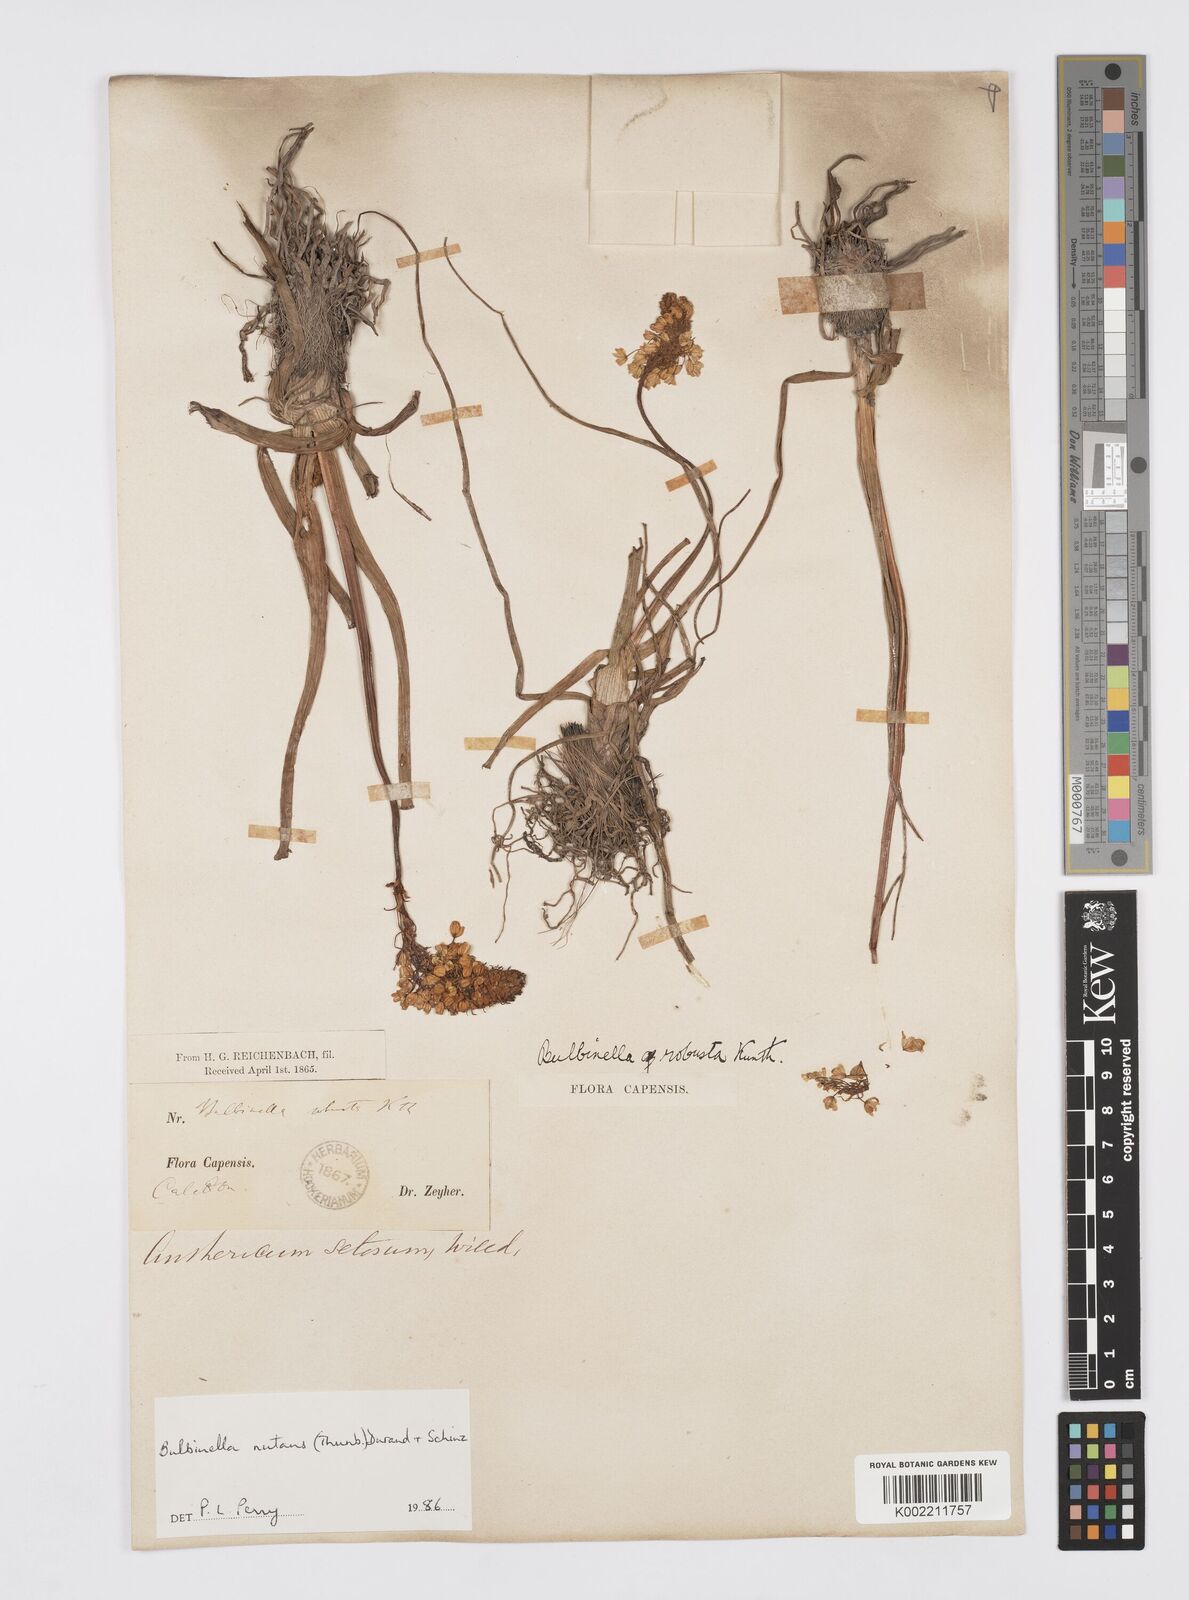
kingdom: Plantae
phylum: Tracheophyta
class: Liliopsida
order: Asparagales
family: Asphodelaceae
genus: Bulbinella
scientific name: Bulbinella nutans
